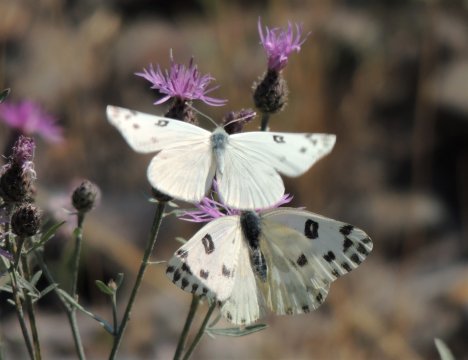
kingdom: Animalia
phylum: Arthropoda
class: Insecta
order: Lepidoptera
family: Pieridae
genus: Pontia
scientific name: Pontia beckerii
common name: Becker's White
